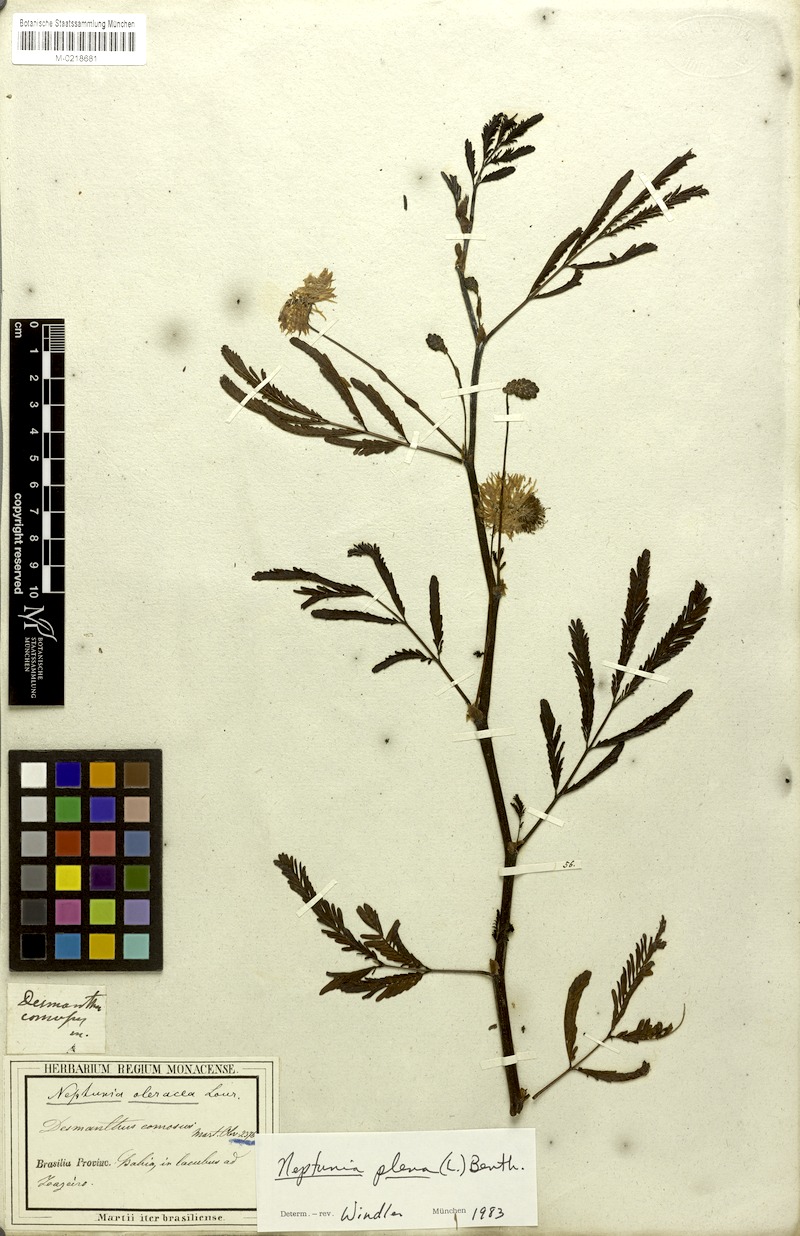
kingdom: Plantae
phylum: Tracheophyta
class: Magnoliopsida
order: Fabales
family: Fabaceae
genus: Neptunia
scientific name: Neptunia plena
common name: Dead and awake
